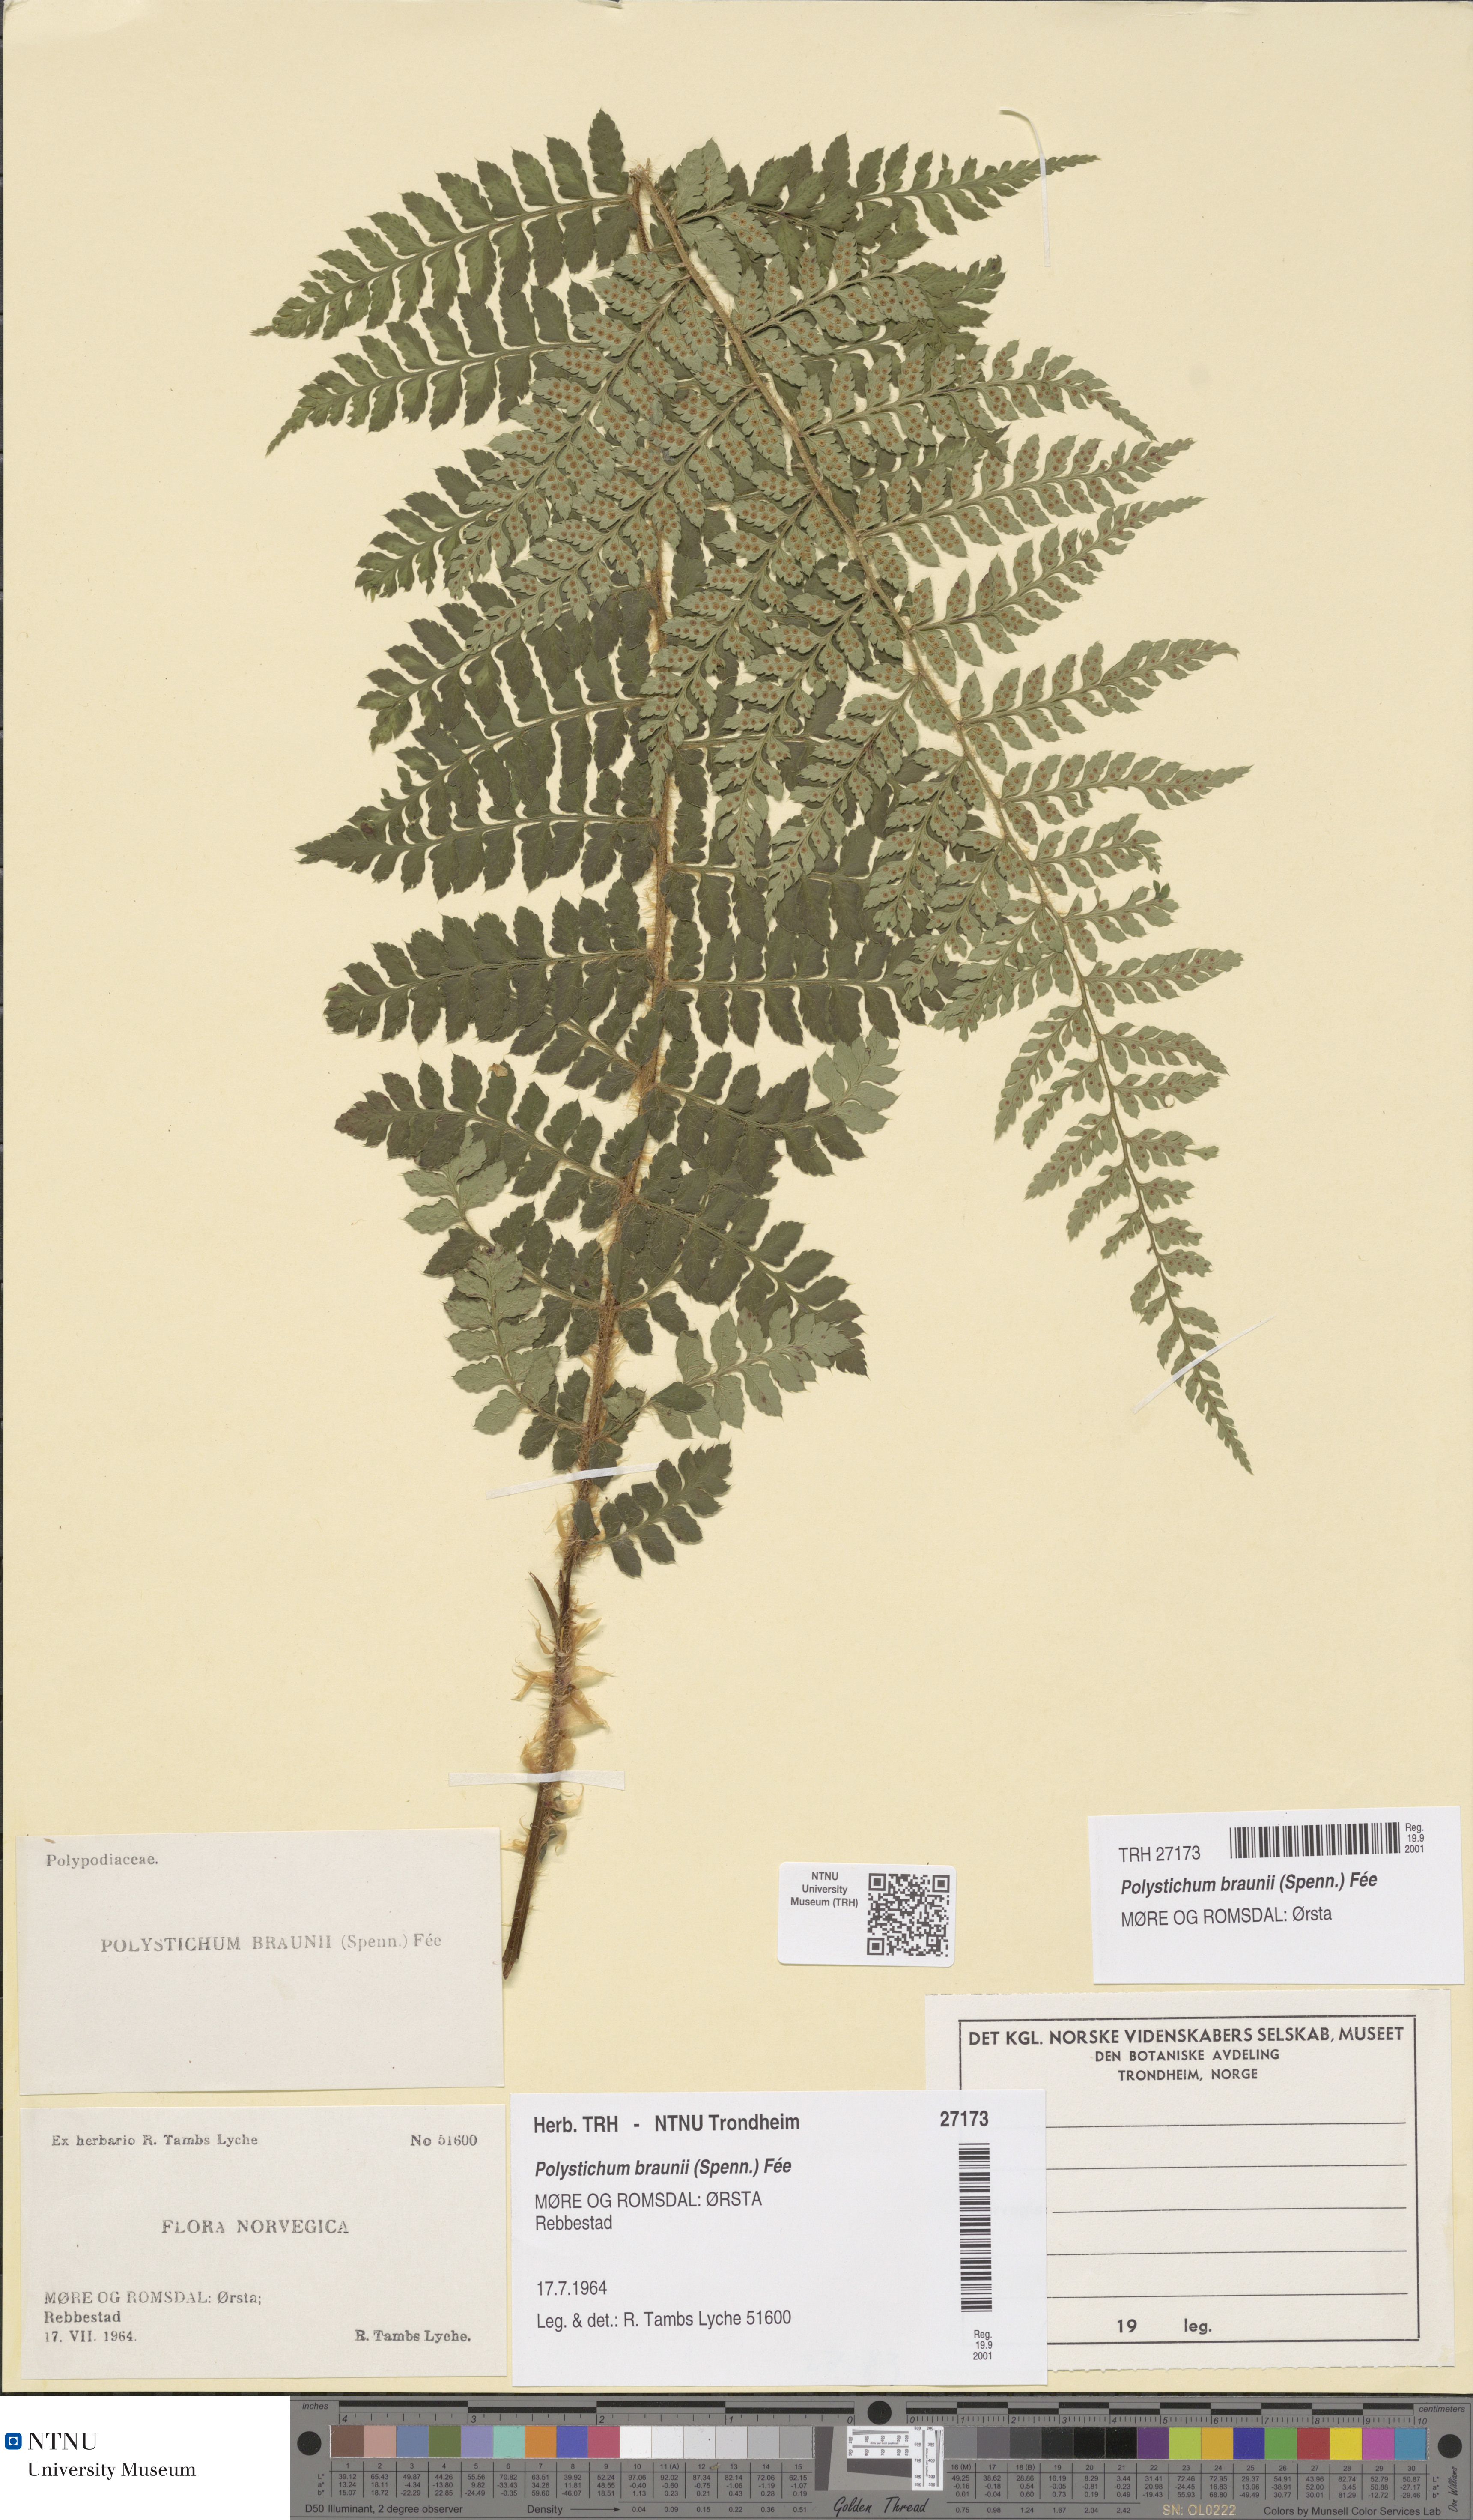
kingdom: Plantae
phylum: Tracheophyta
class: Polypodiopsida
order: Polypodiales
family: Dryopteridaceae
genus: Polystichum
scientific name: Polystichum braunii
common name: Braun's holly fern
